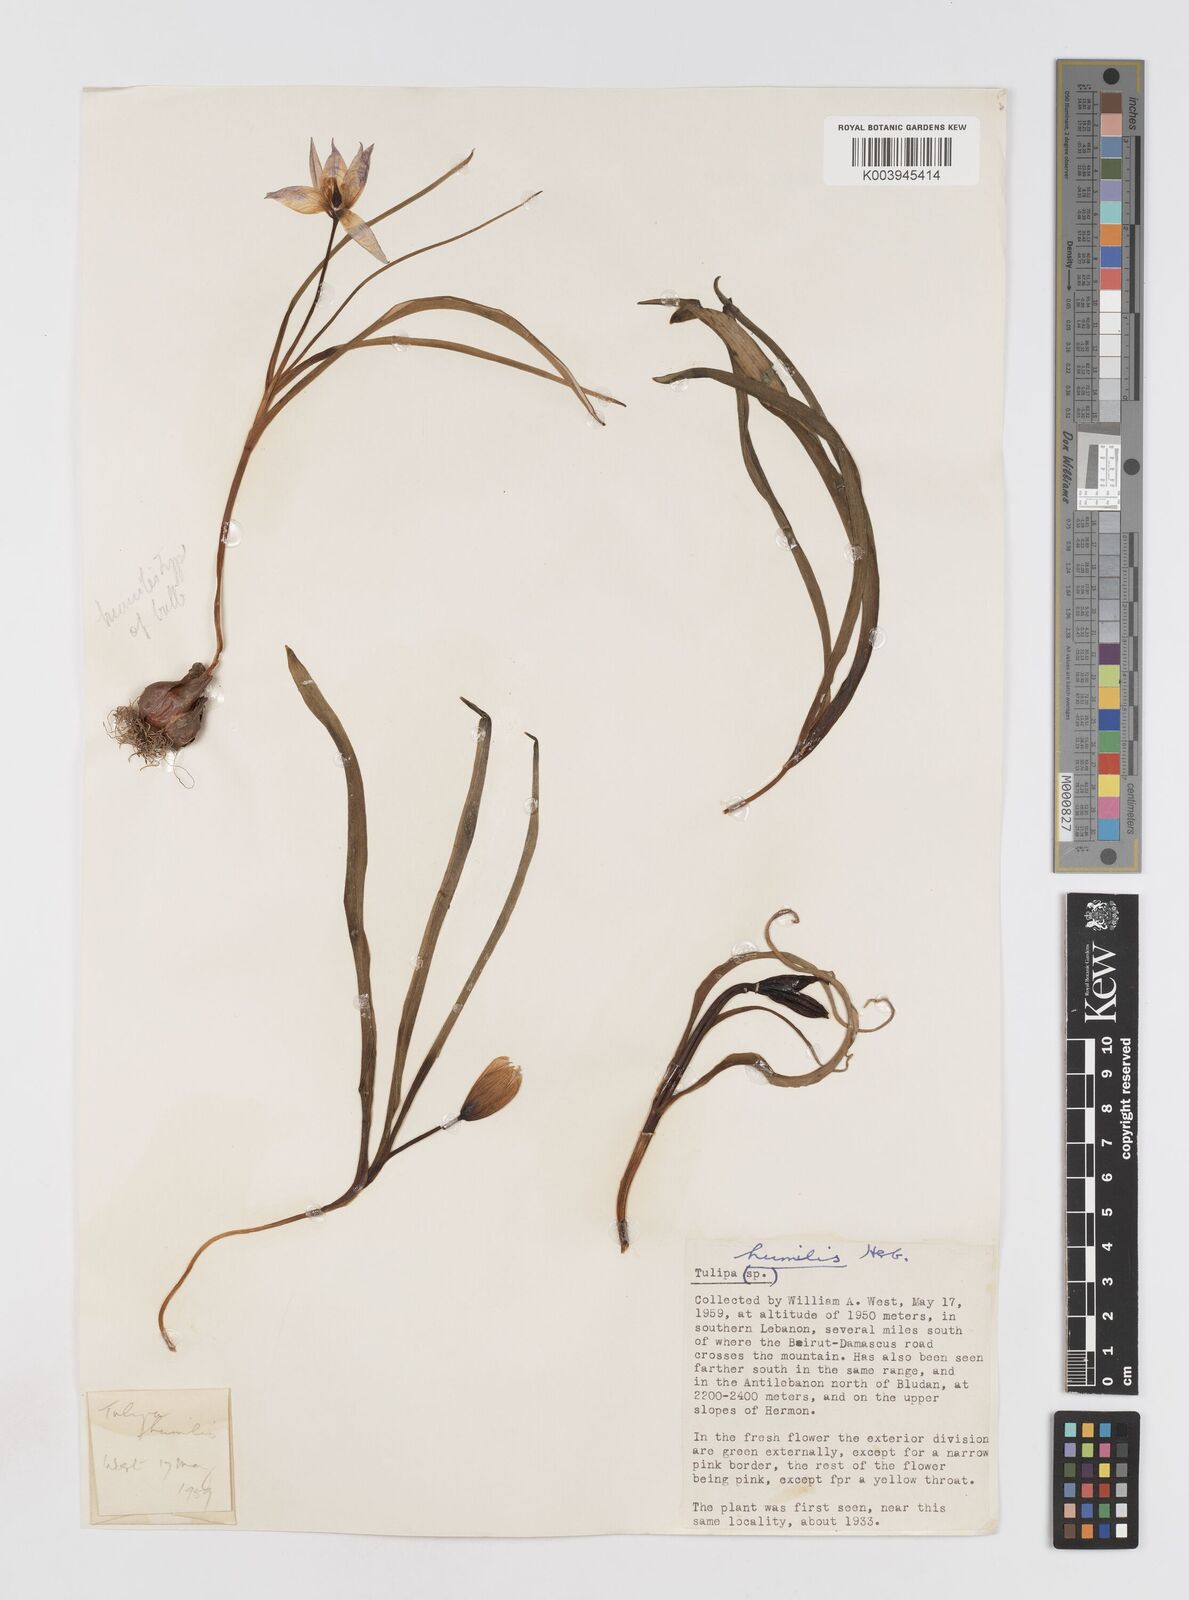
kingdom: Plantae
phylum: Tracheophyta
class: Liliopsida
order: Liliales
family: Liliaceae
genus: Tulipa
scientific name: Tulipa humilis
